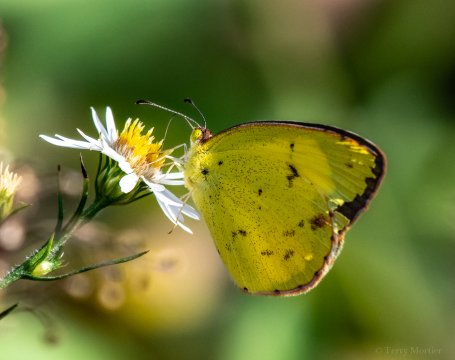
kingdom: Animalia
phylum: Arthropoda
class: Insecta
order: Lepidoptera
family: Pieridae
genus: Pyrisitia
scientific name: Pyrisitia lisa
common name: Little Yellow
